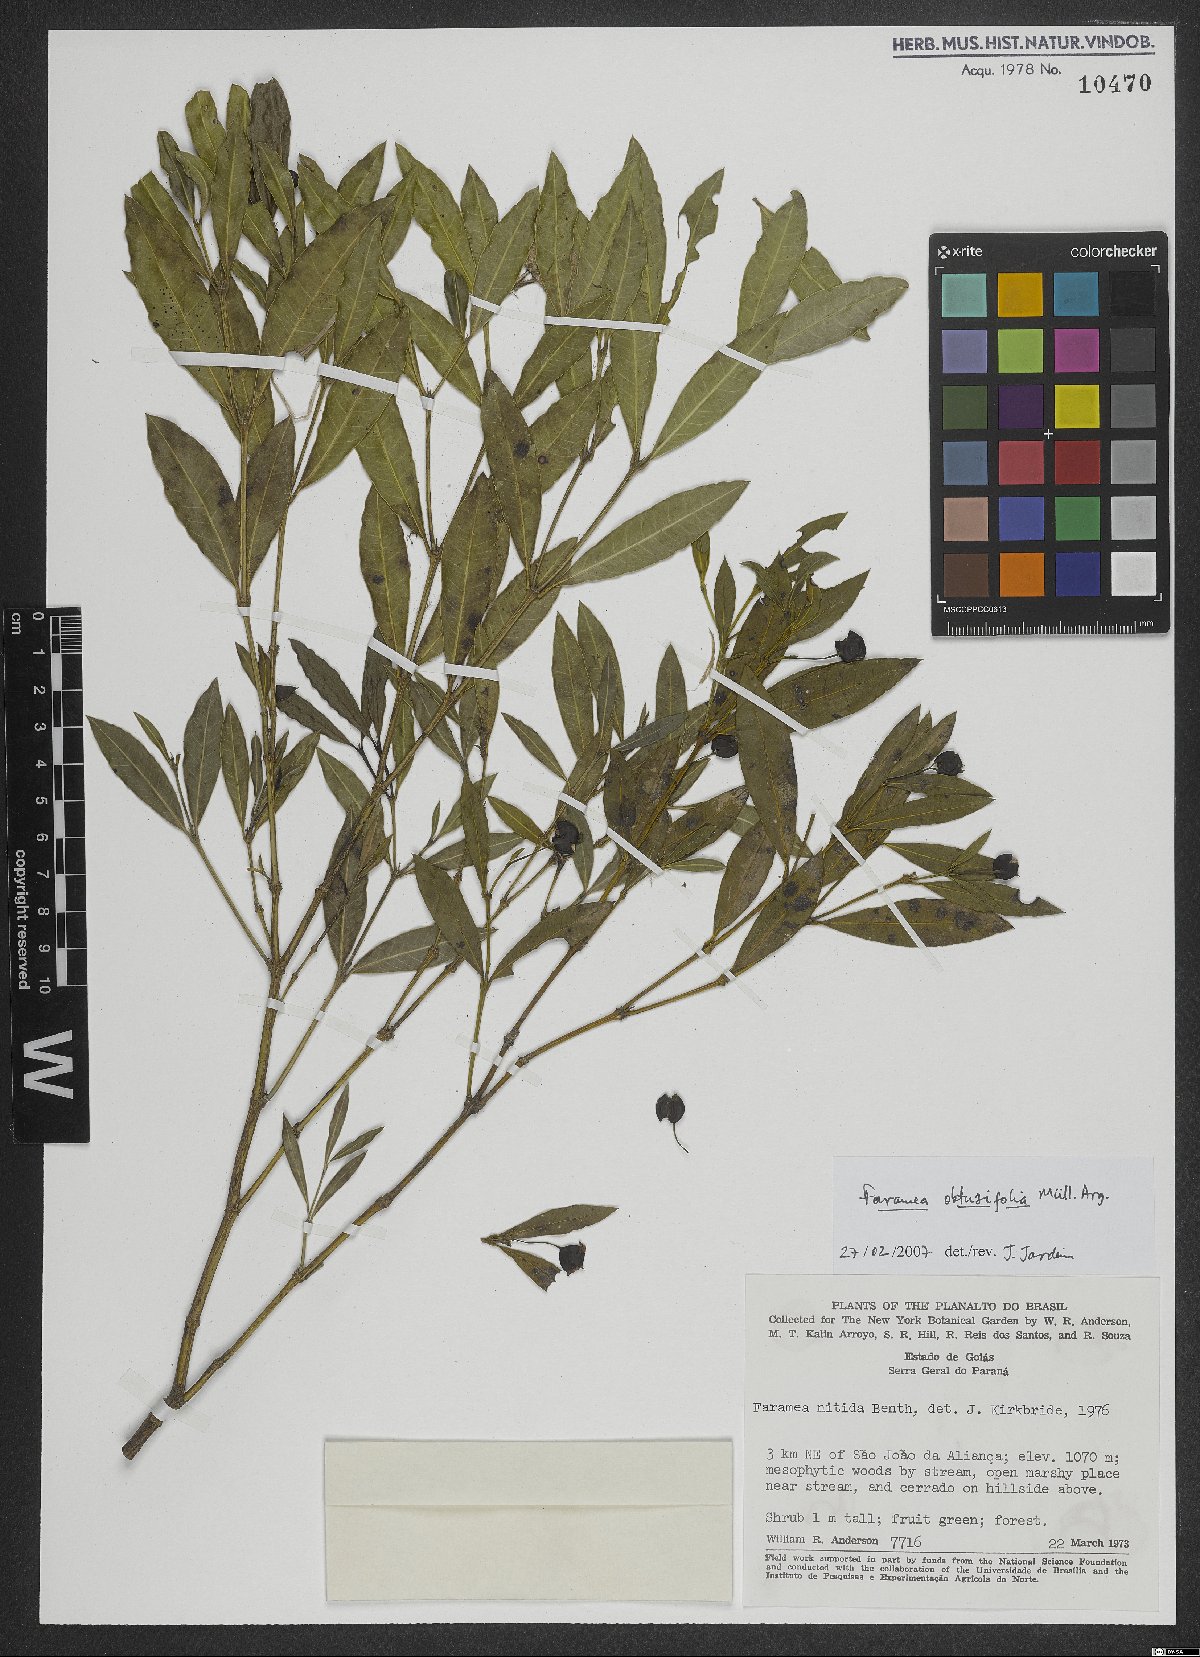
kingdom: Plantae
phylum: Tracheophyta
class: Magnoliopsida
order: Gentianales
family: Rubiaceae
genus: Faramea
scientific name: Faramea obtusifolia
